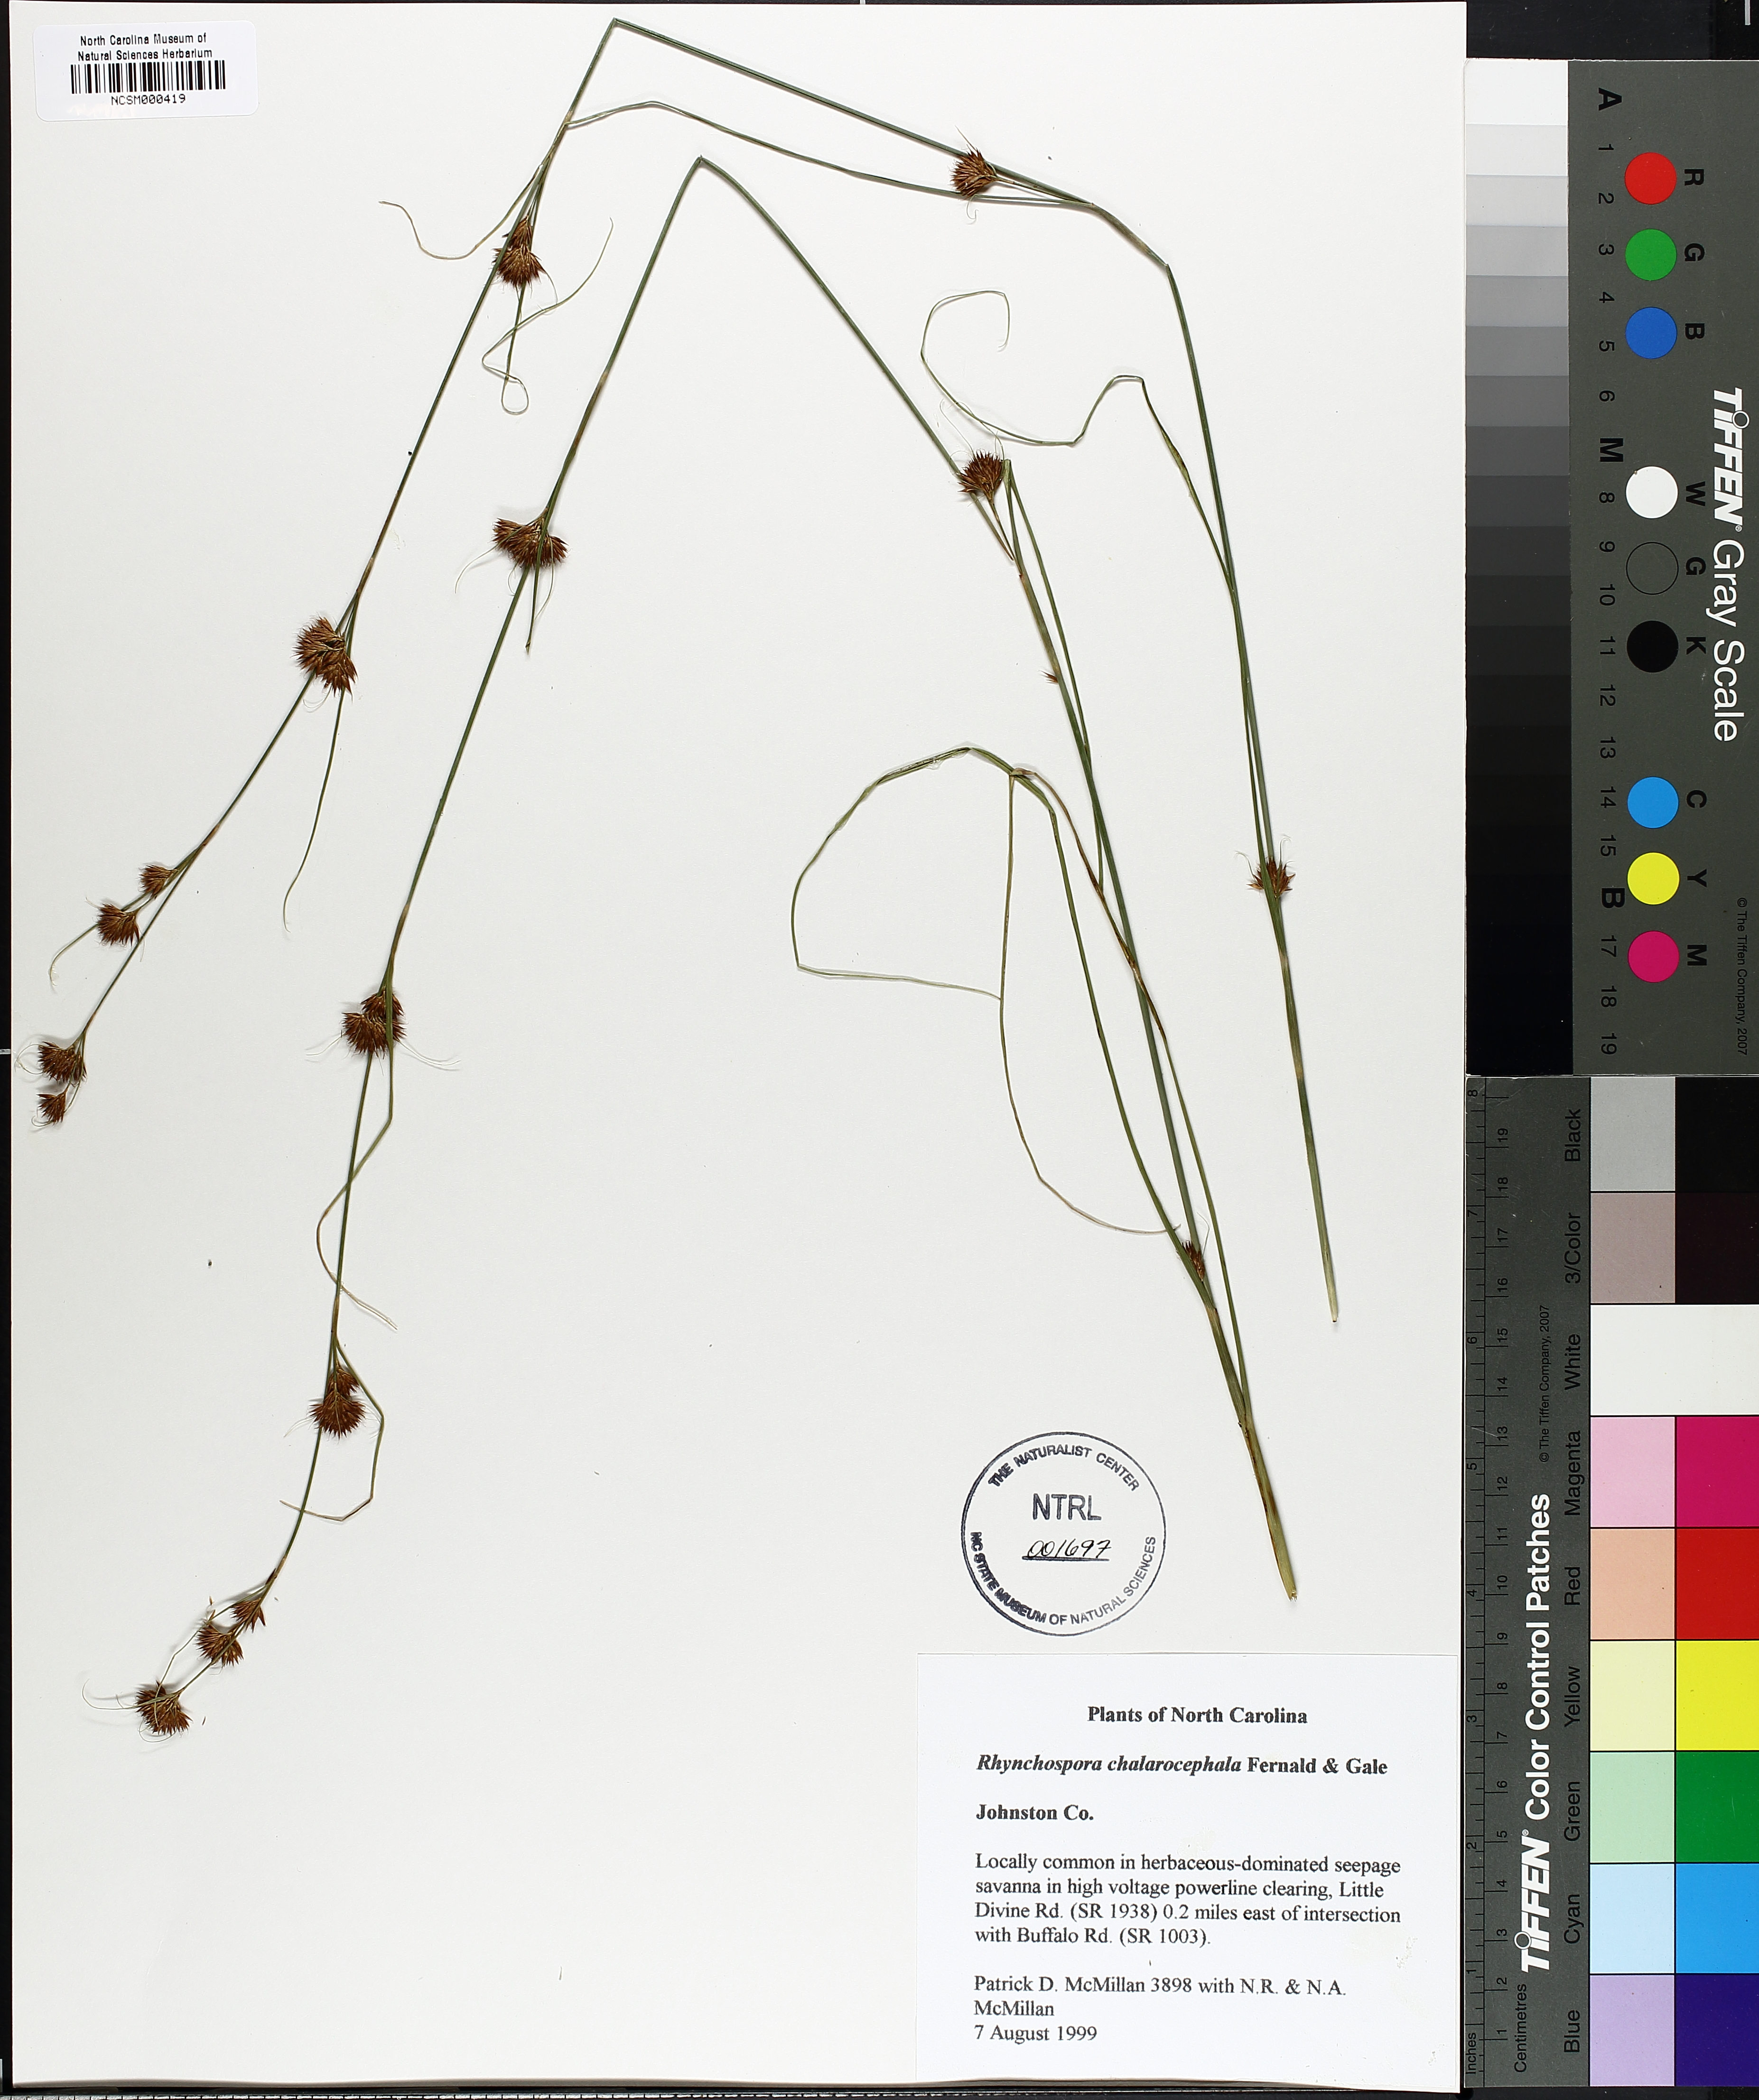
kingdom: Plantae
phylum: Tracheophyta
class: Liliopsida
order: Poales
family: Cyperaceae
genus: Rhynchospora
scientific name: Rhynchospora chalarocephala
